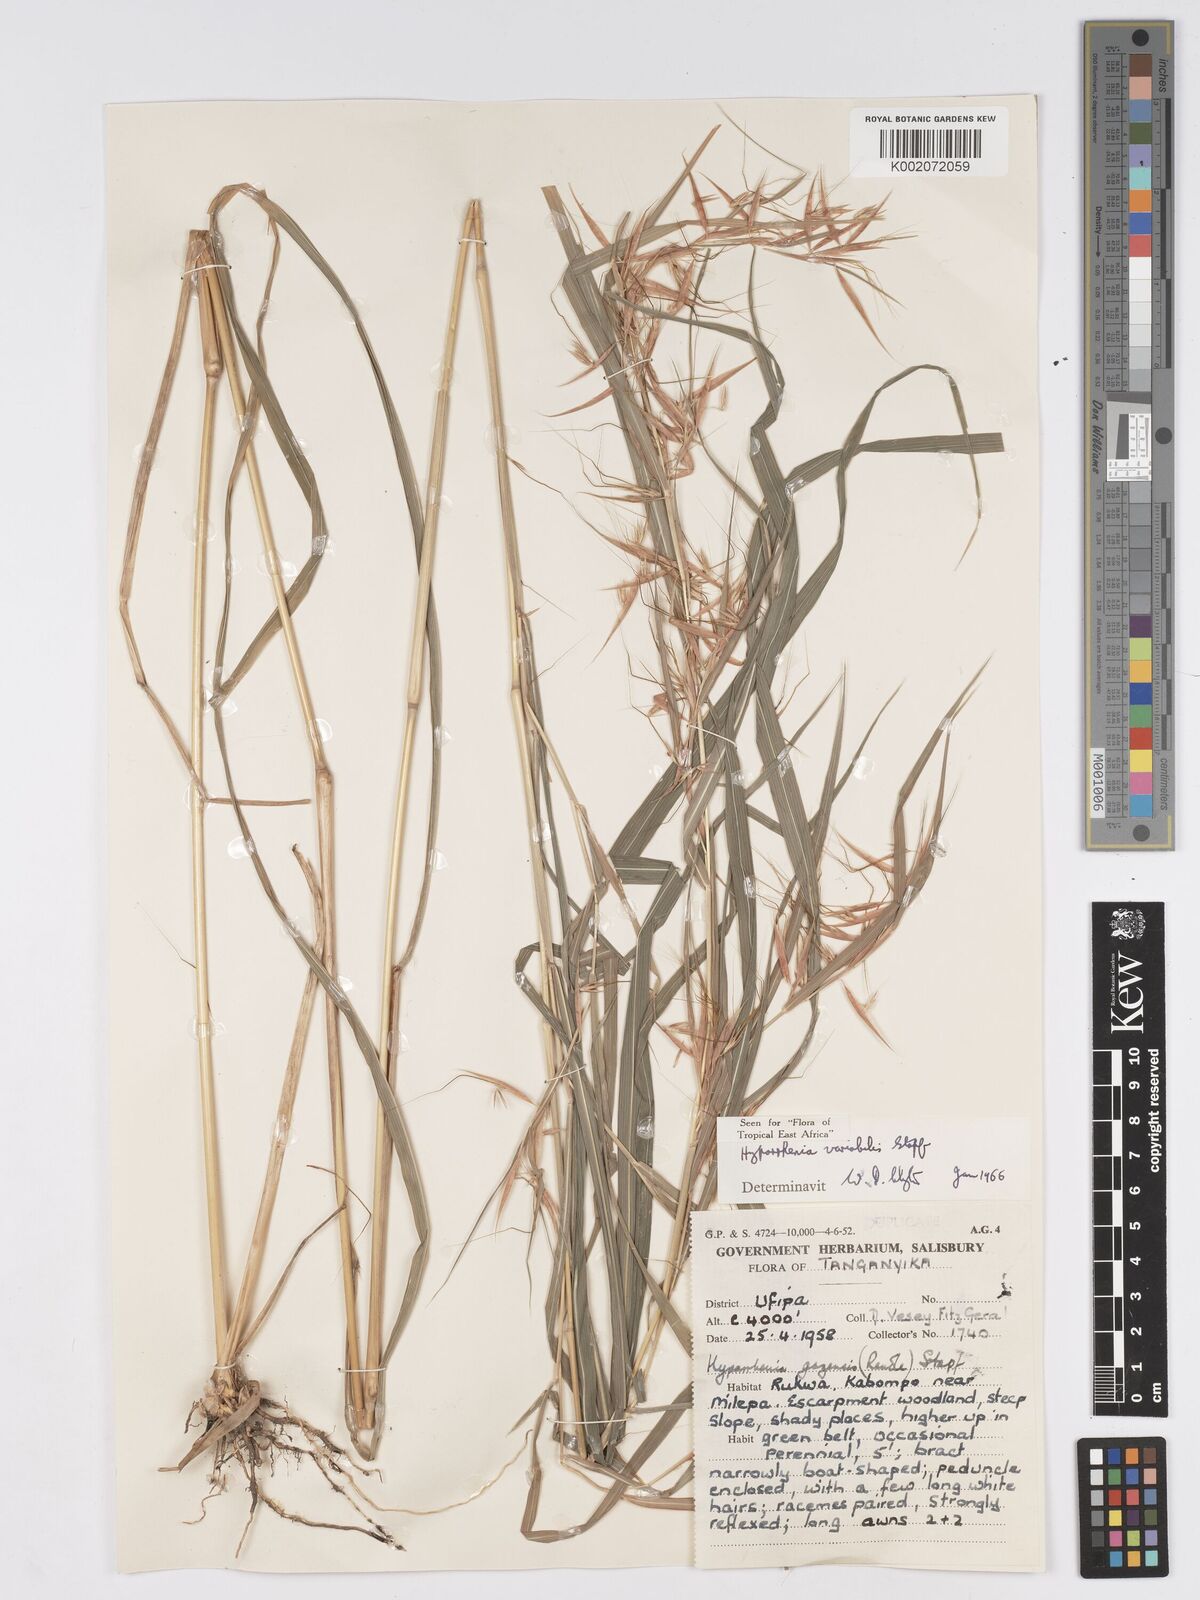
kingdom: Plantae
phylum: Tracheophyta
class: Liliopsida
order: Poales
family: Poaceae
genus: Hyparrhenia
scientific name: Hyparrhenia variabilis
